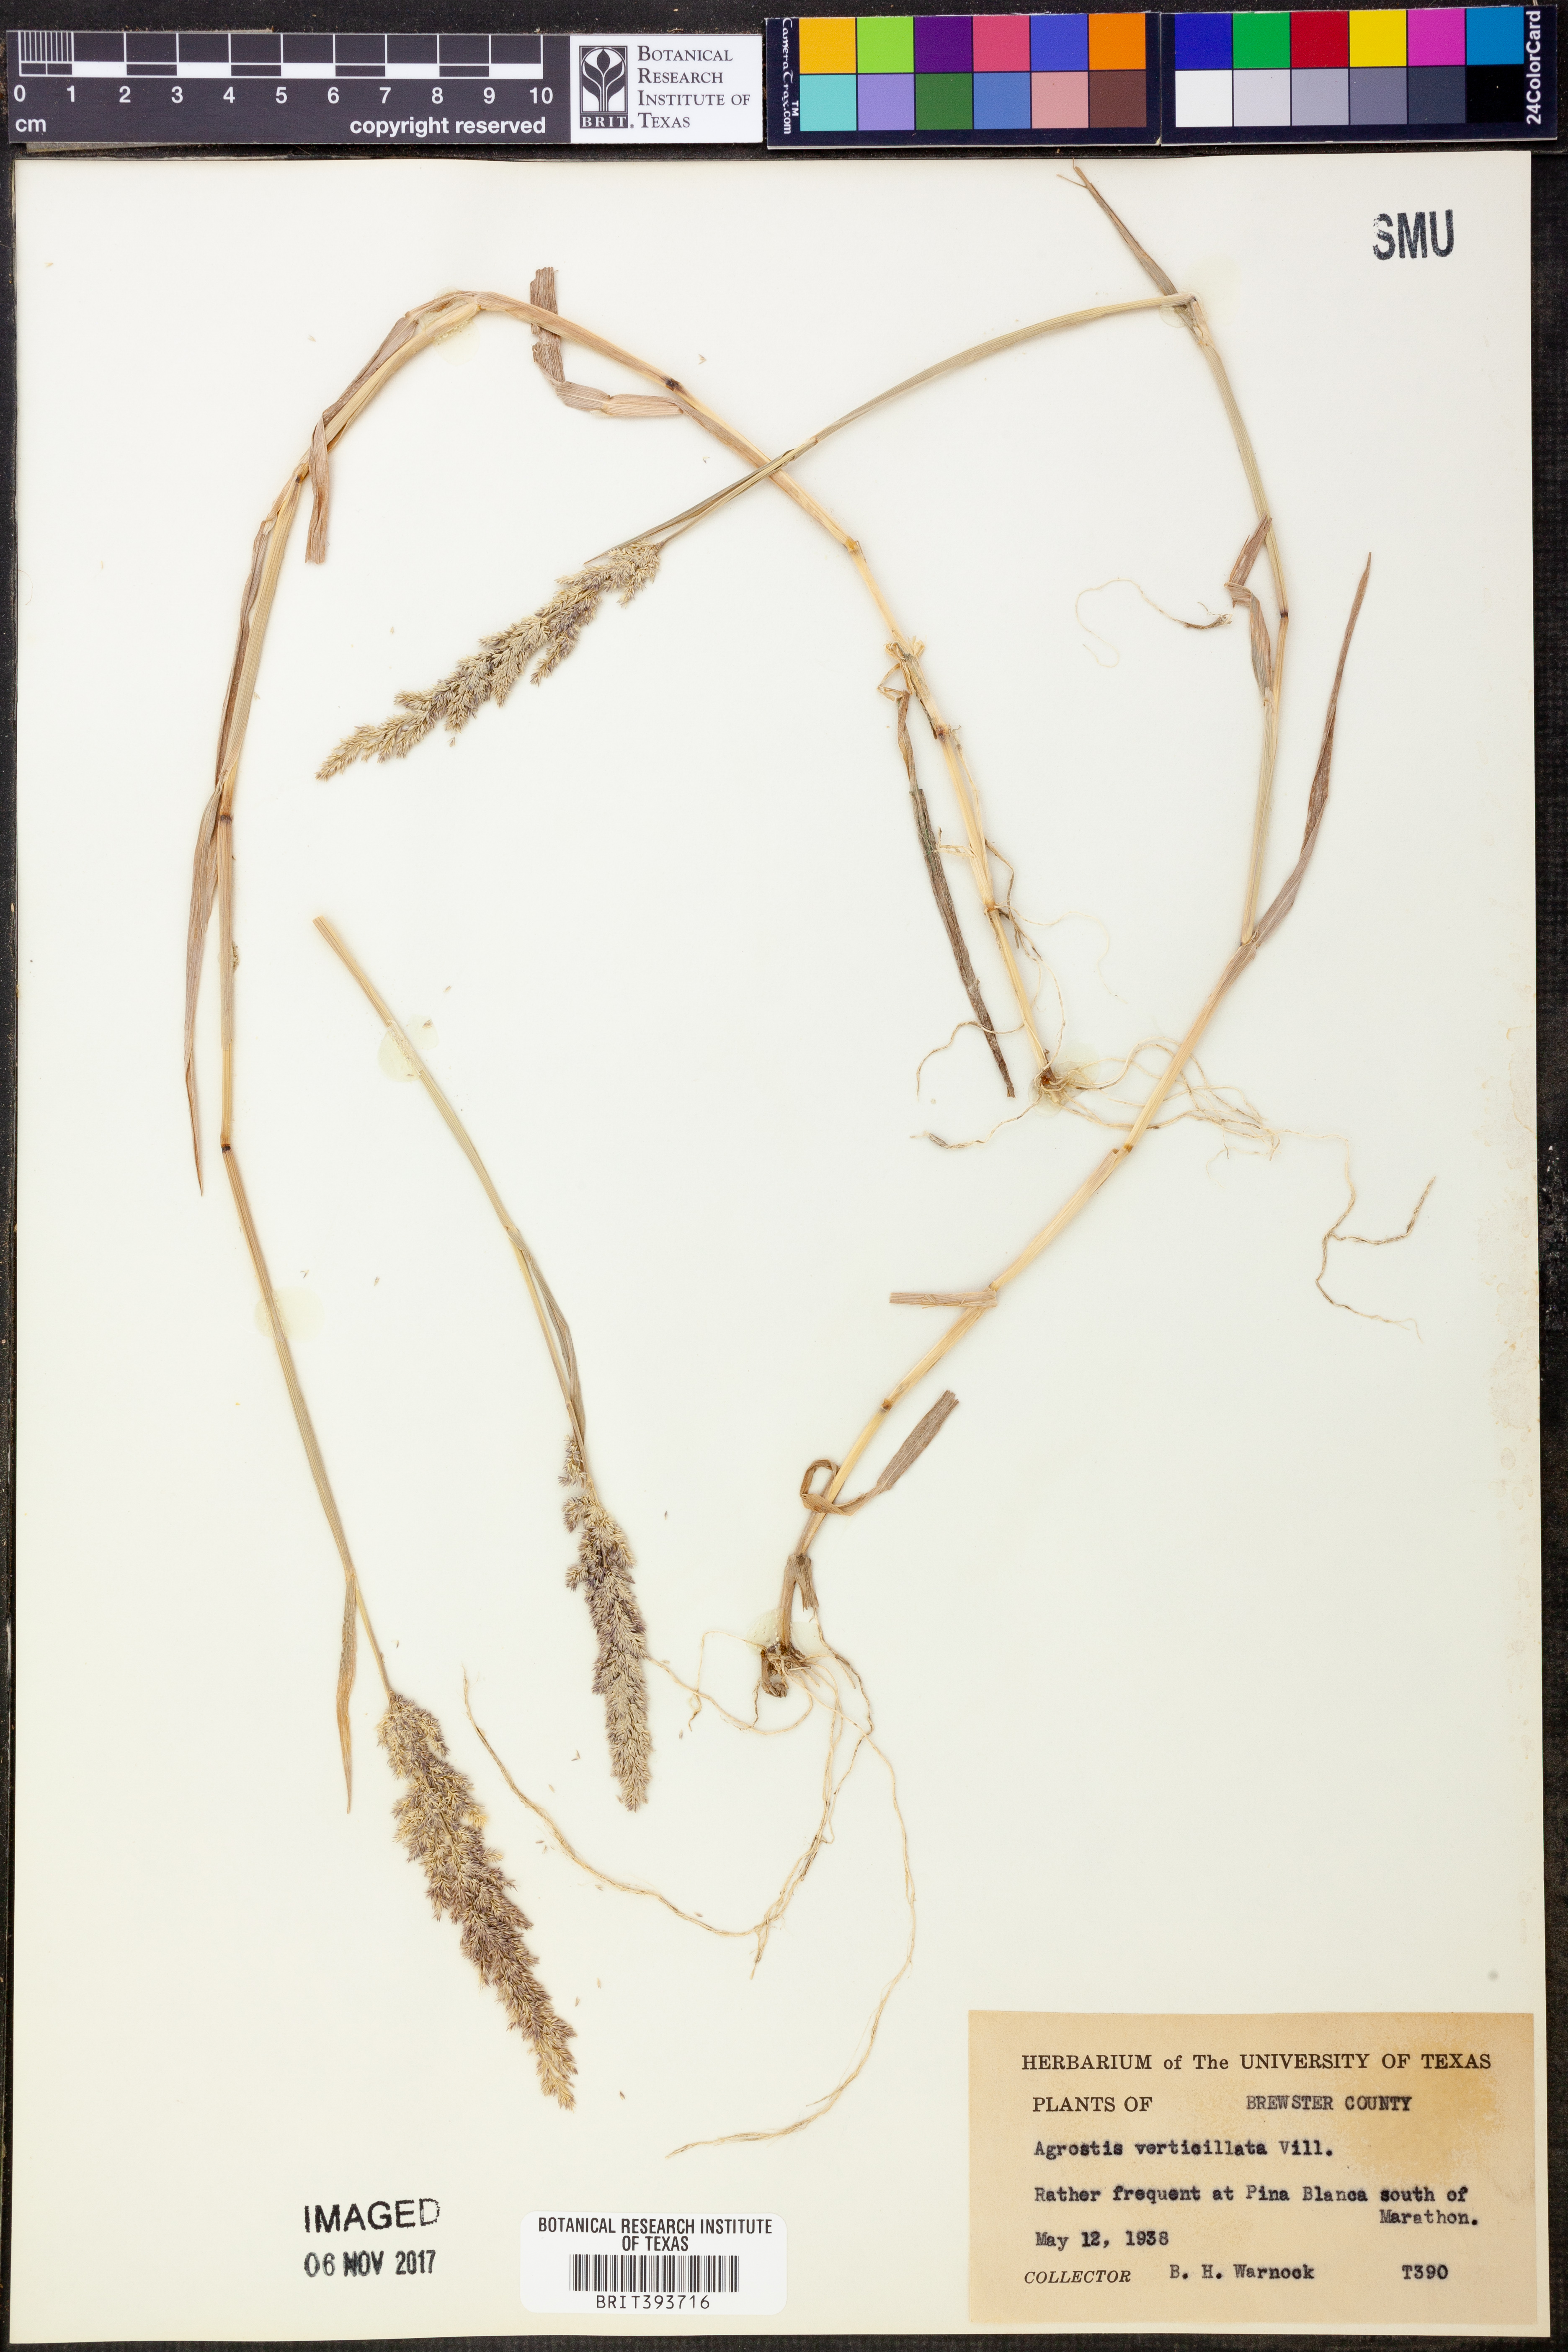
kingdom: Plantae
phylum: Tracheophyta
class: Liliopsida
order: Poales
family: Poaceae
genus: Polypogon
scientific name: Polypogon viridis
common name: Water bent
